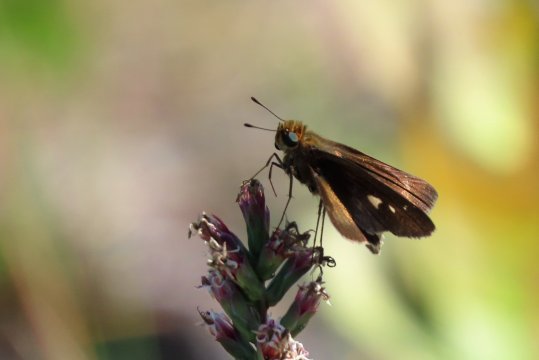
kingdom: Animalia
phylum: Arthropoda
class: Insecta
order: Lepidoptera
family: Hesperiidae
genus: Panoquina
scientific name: Panoquina ocola
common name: Ocola Skipper
